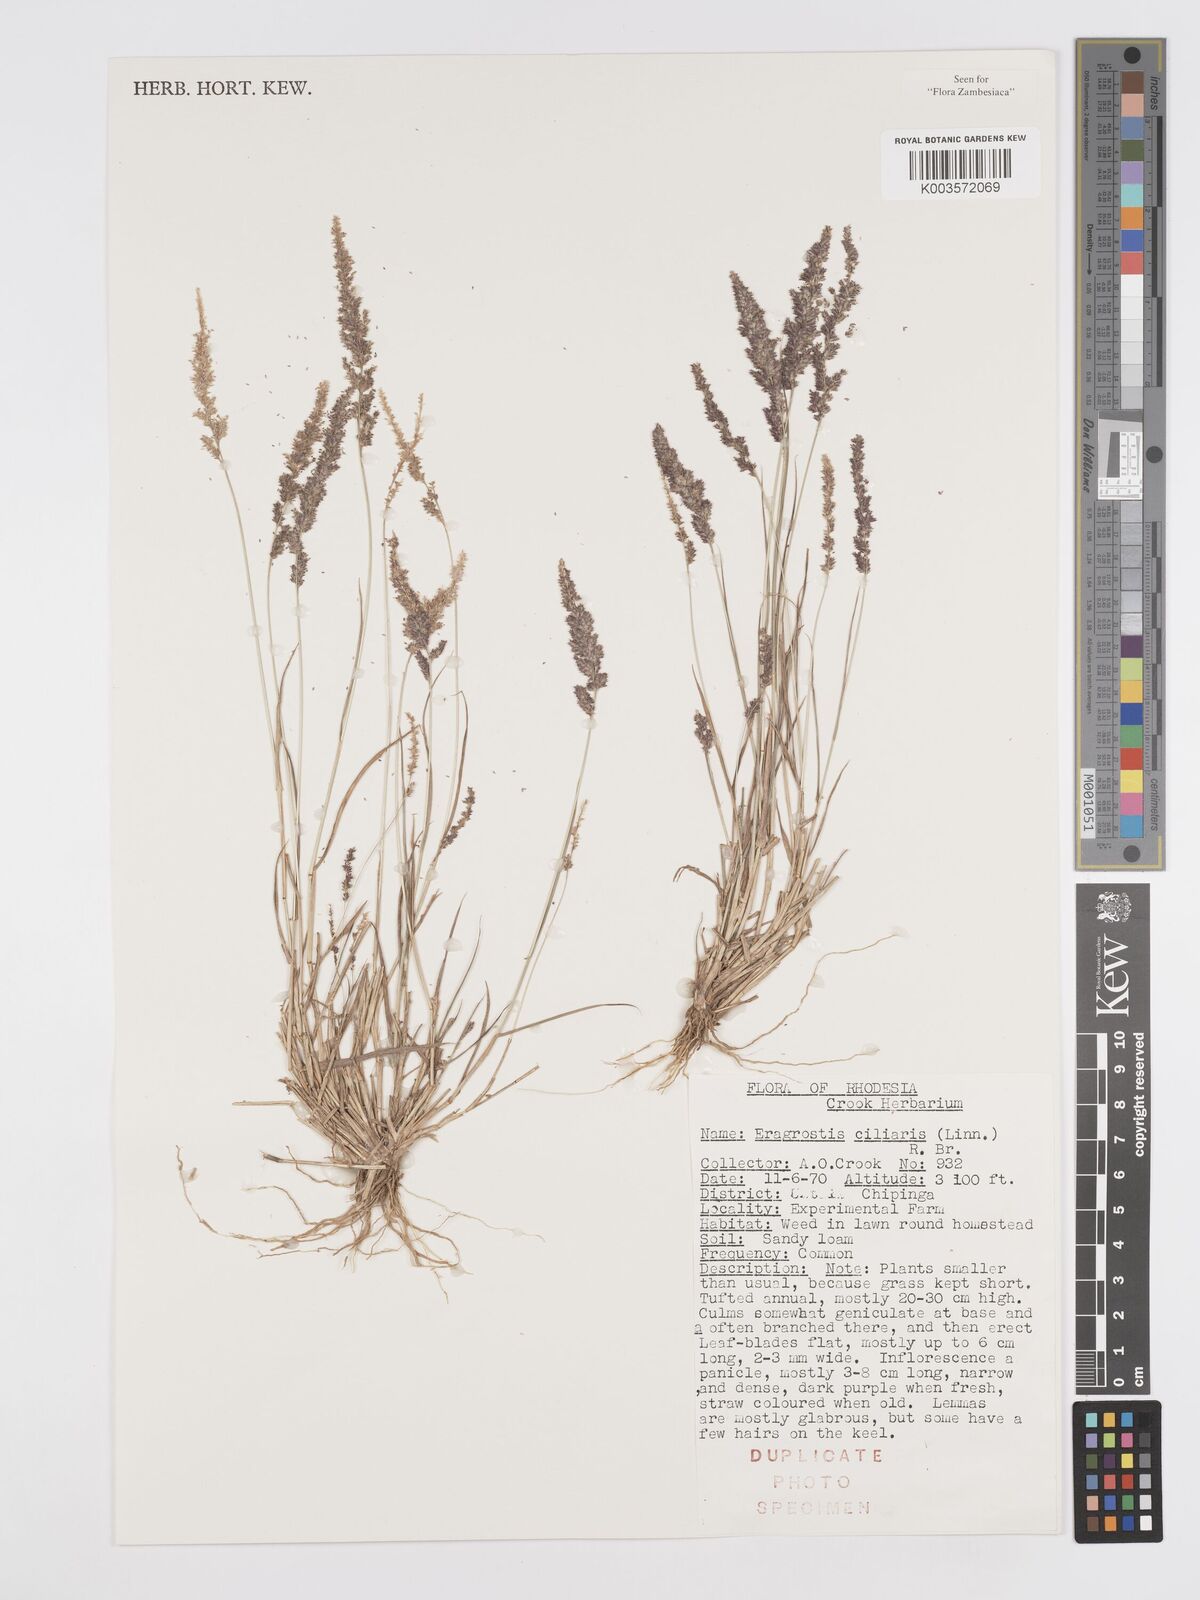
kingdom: Plantae
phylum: Tracheophyta
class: Liliopsida
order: Poales
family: Poaceae
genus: Eragrostis
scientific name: Eragrostis ciliaris
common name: Gophertail lovegrass
